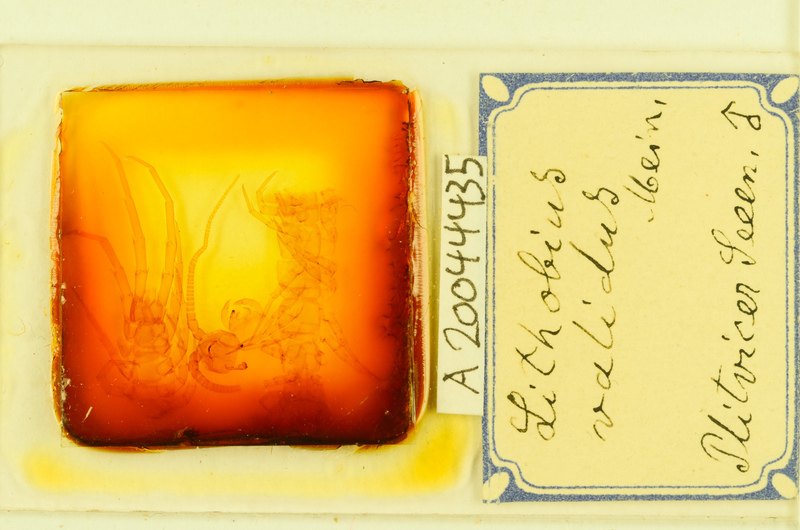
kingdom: Animalia
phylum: Arthropoda
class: Chilopoda
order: Lithobiomorpha
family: Lithobiidae
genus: Lithobius
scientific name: Lithobius punctulatus
